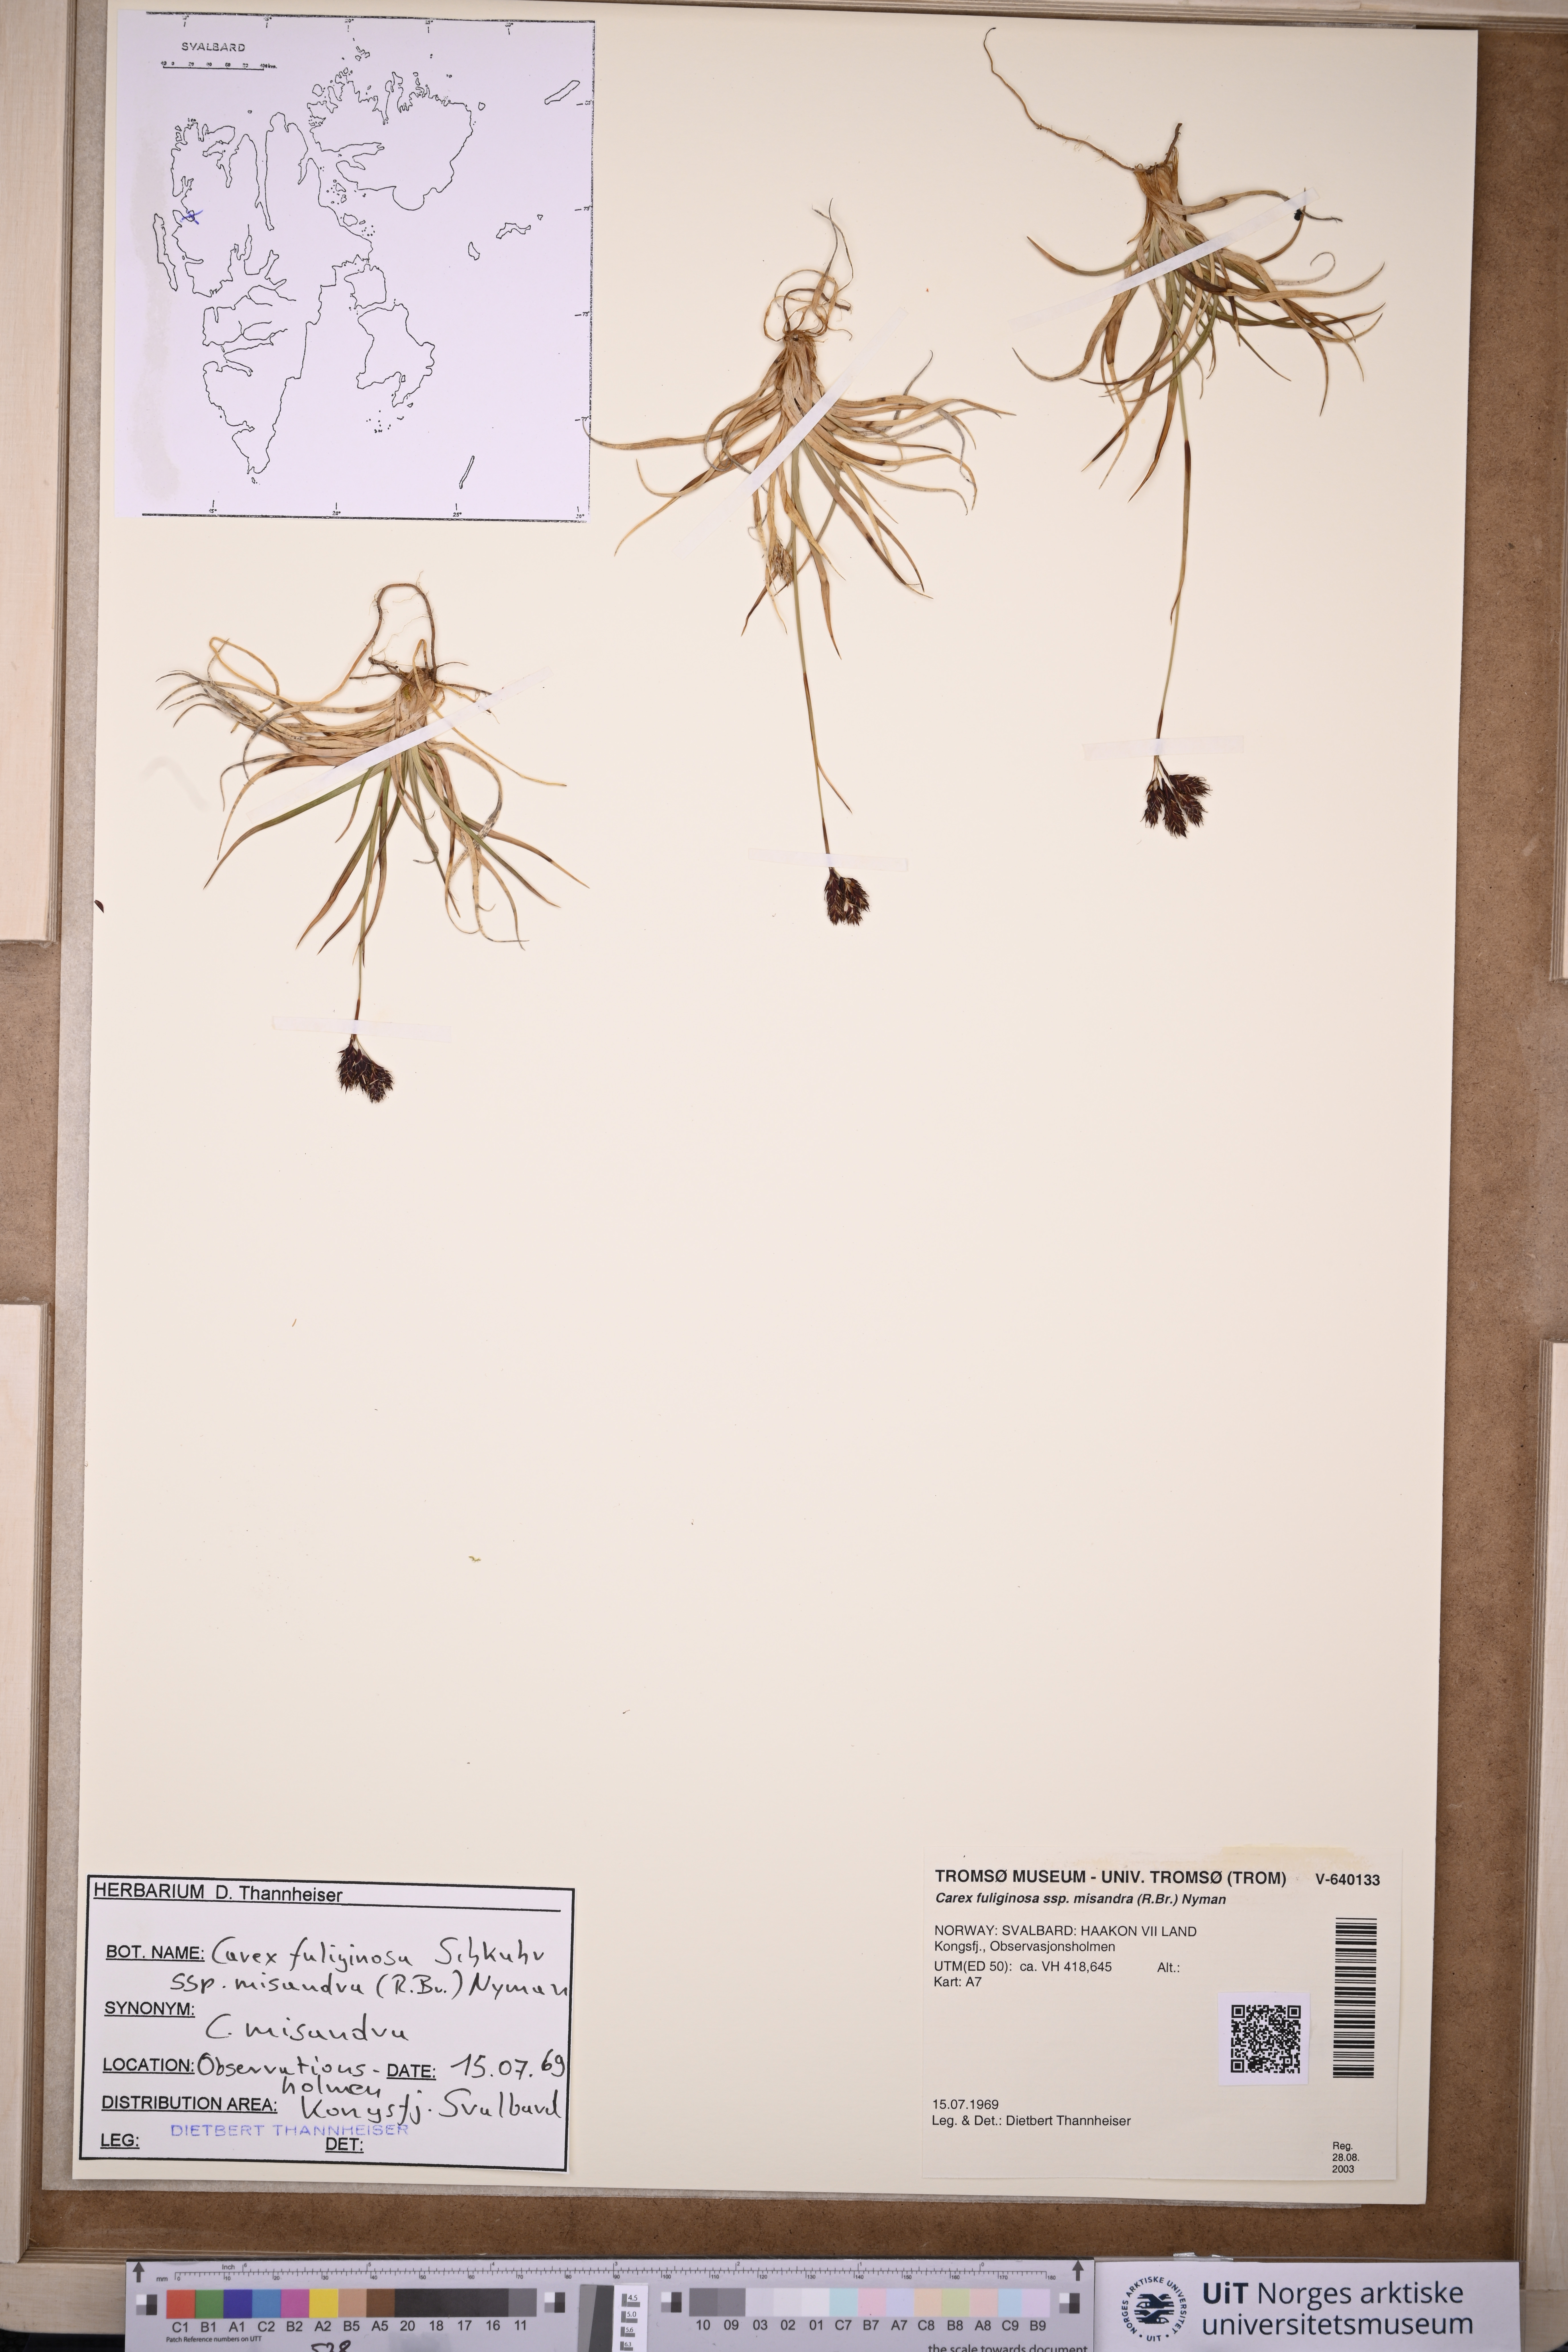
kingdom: Plantae
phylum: Tracheophyta
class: Liliopsida
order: Poales
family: Cyperaceae
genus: Carex
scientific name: Carex fuliginosa
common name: Few-flowered sedge
